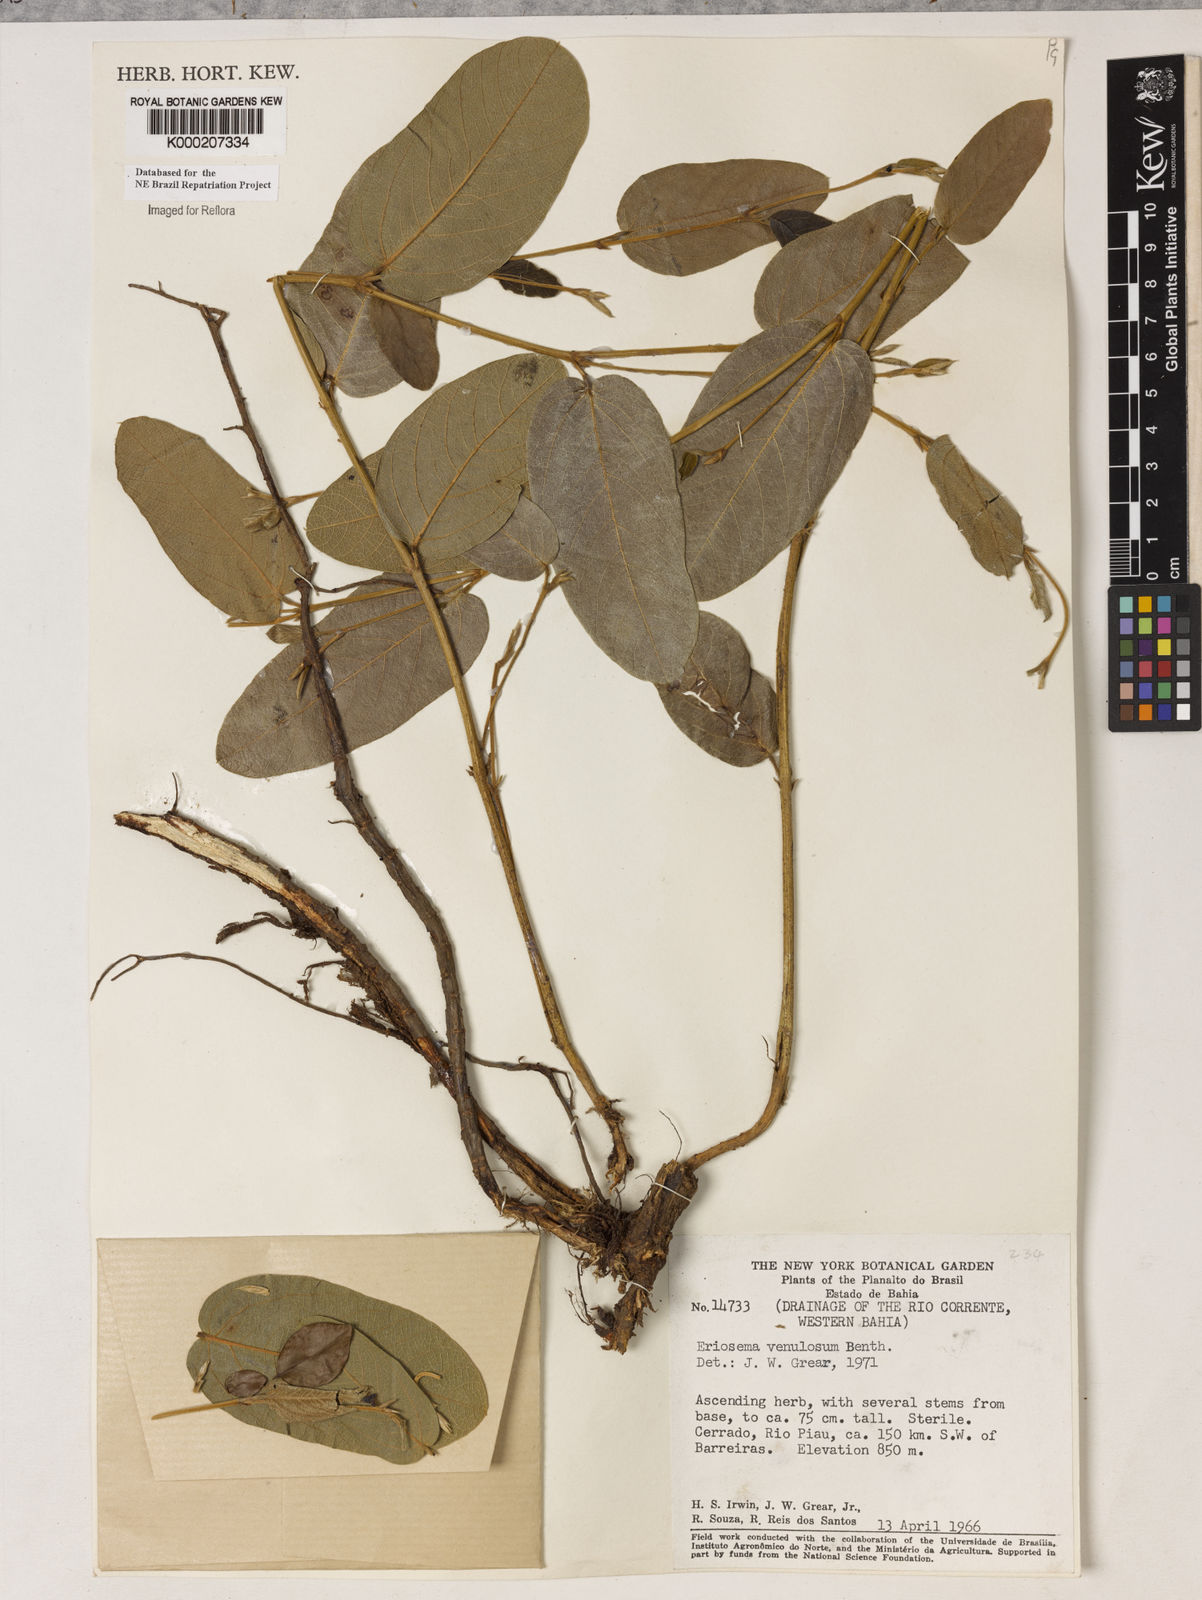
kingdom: Plantae
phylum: Tracheophyta
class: Magnoliopsida
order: Fabales
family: Fabaceae
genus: Eriosema
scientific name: Eriosema venulosum
